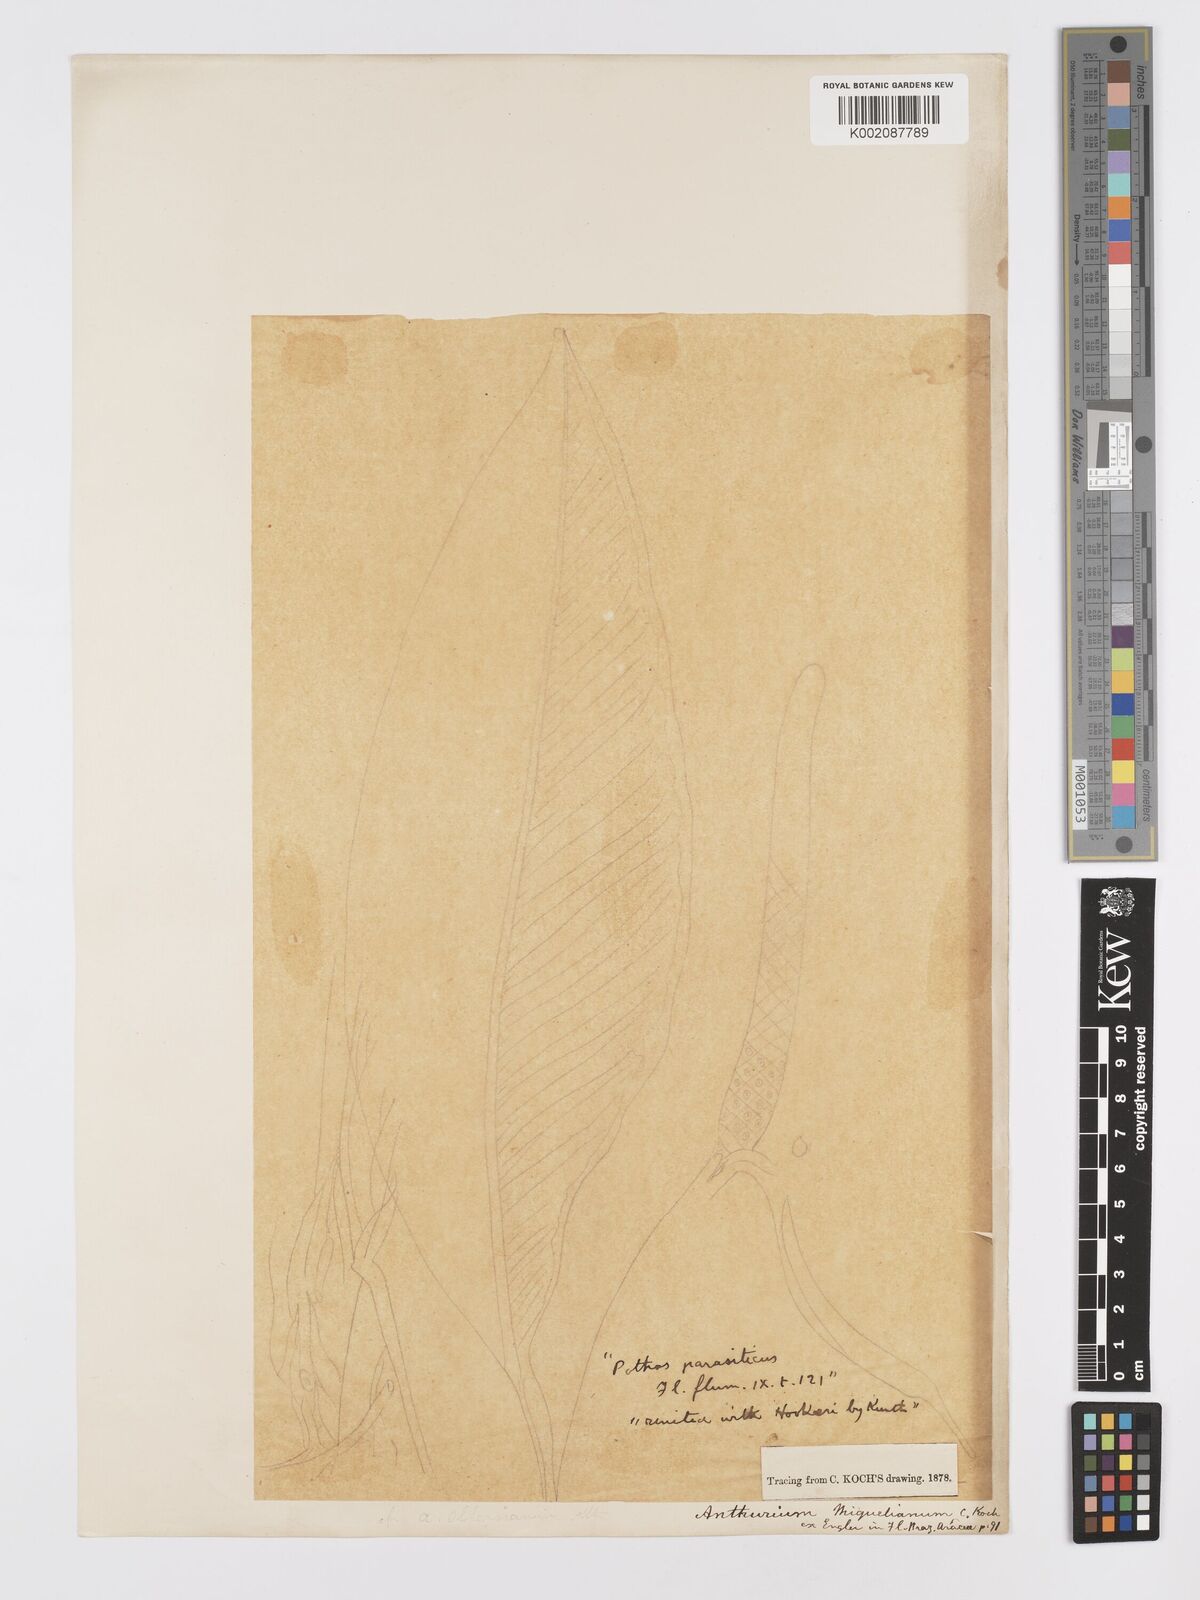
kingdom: Plantae
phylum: Tracheophyta
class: Liliopsida
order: Alismatales
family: Araceae
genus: Anthurium
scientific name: Anthurium parasiticum
